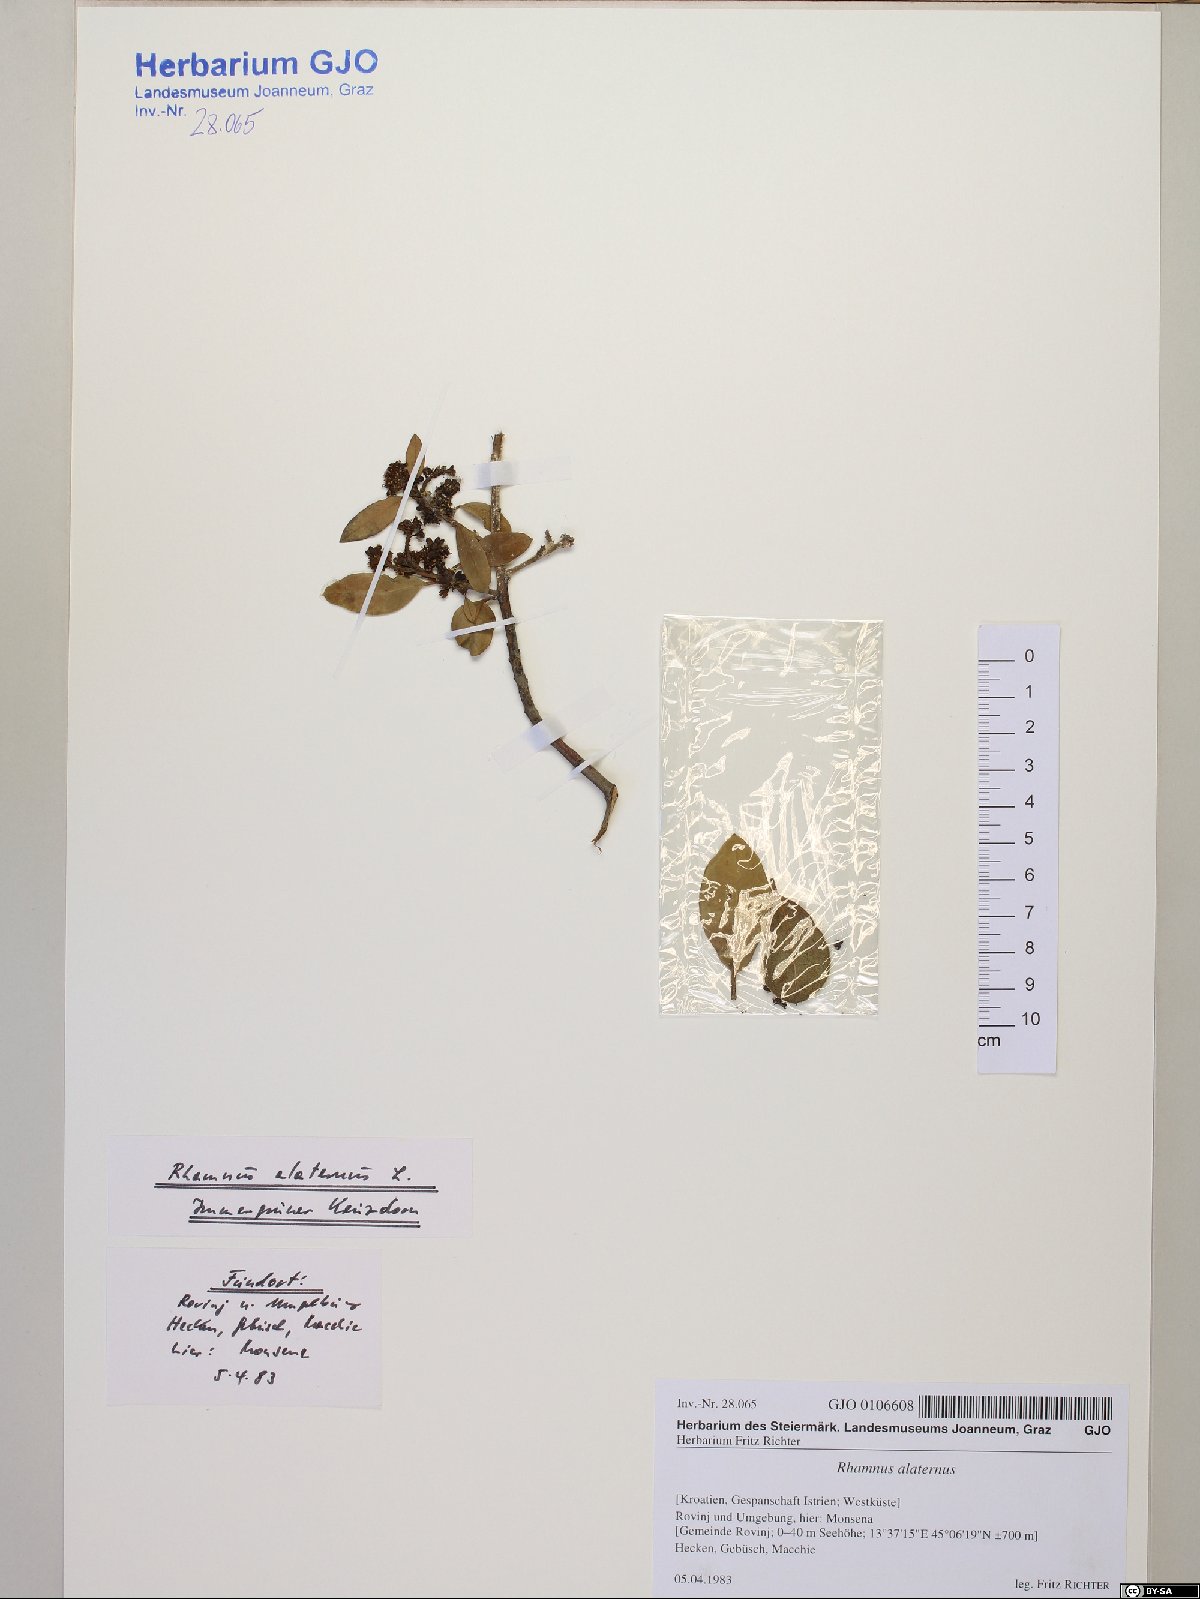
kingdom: Plantae
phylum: Tracheophyta
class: Magnoliopsida
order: Rosales
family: Rhamnaceae
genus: Rhamnus
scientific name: Rhamnus alaternus
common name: Mediterranean buckthorn
